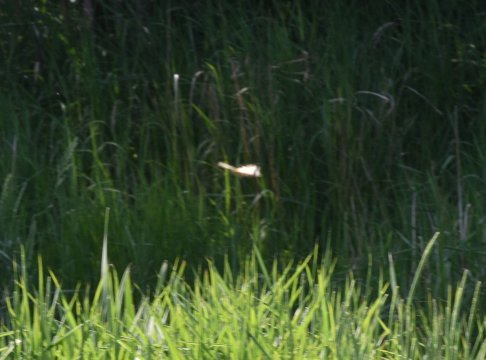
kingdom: Animalia
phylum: Arthropoda
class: Insecta
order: Lepidoptera
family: Papilionidae
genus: Pterourus
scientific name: Pterourus canadensis
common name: Canadian Tiger Swallowtail
